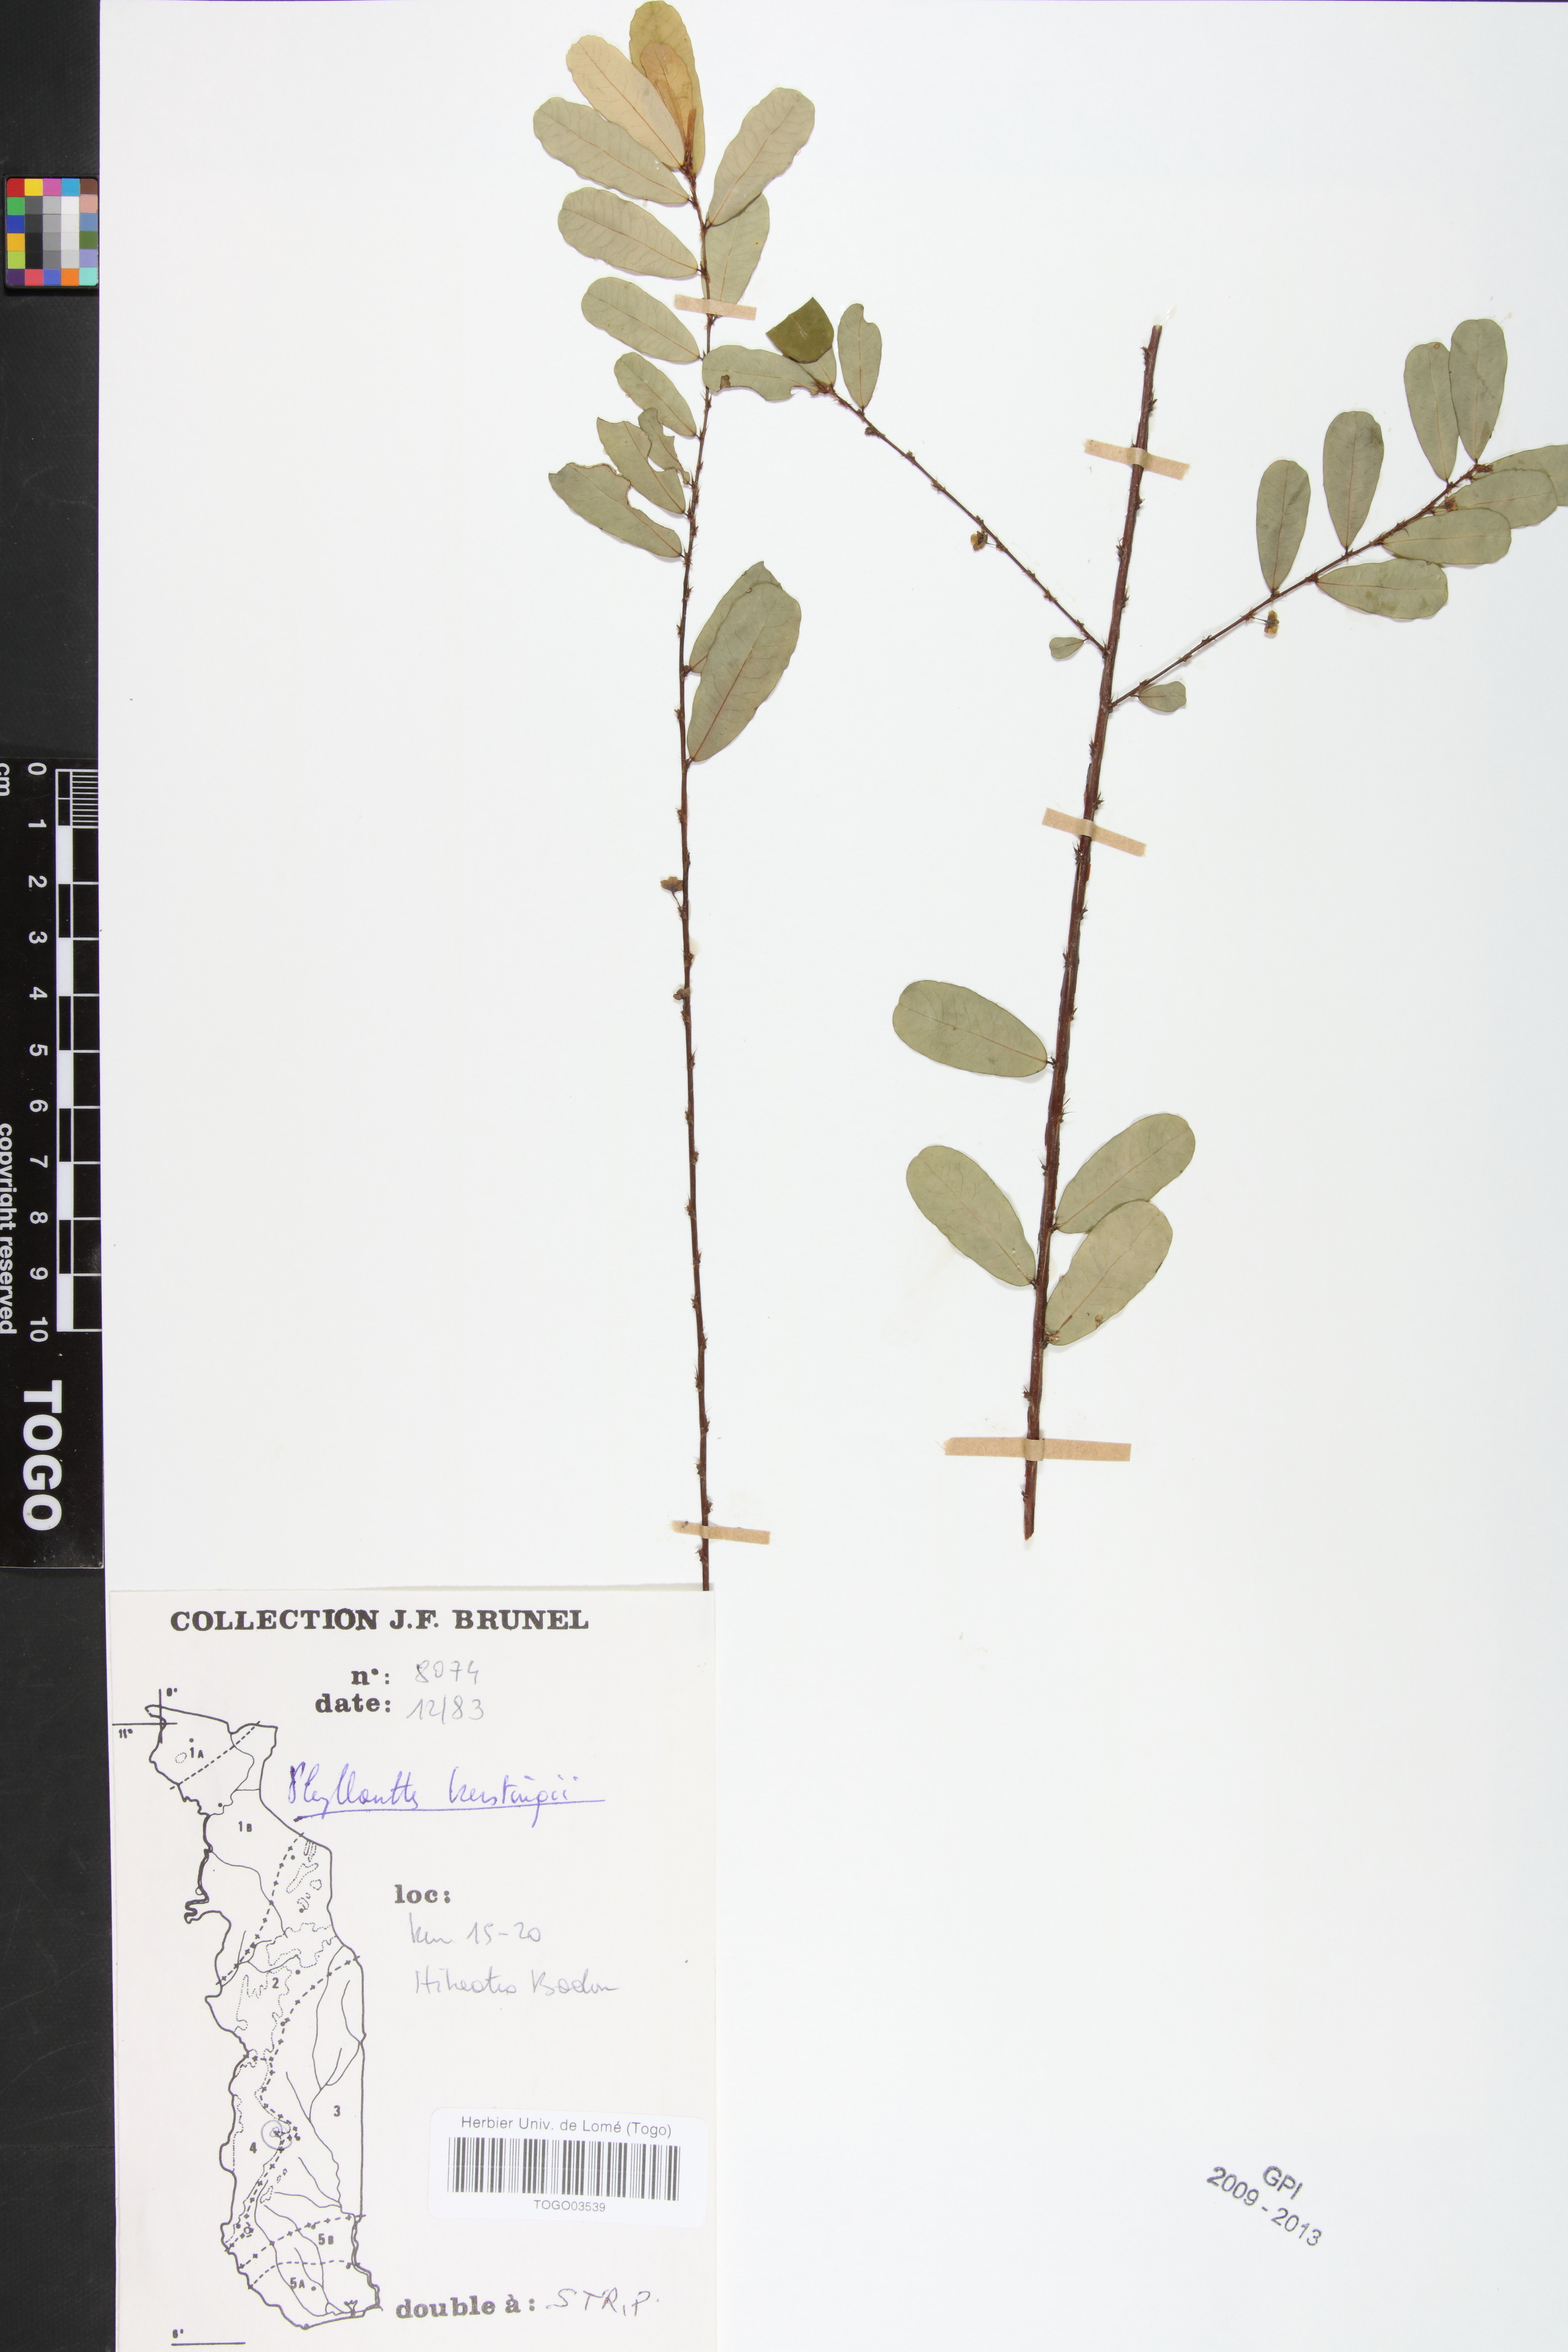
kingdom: Plantae
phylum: Tracheophyta
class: Magnoliopsida
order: Malpighiales
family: Phyllanthaceae
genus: Phyllanthus
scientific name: Phyllanthus kerstingii
